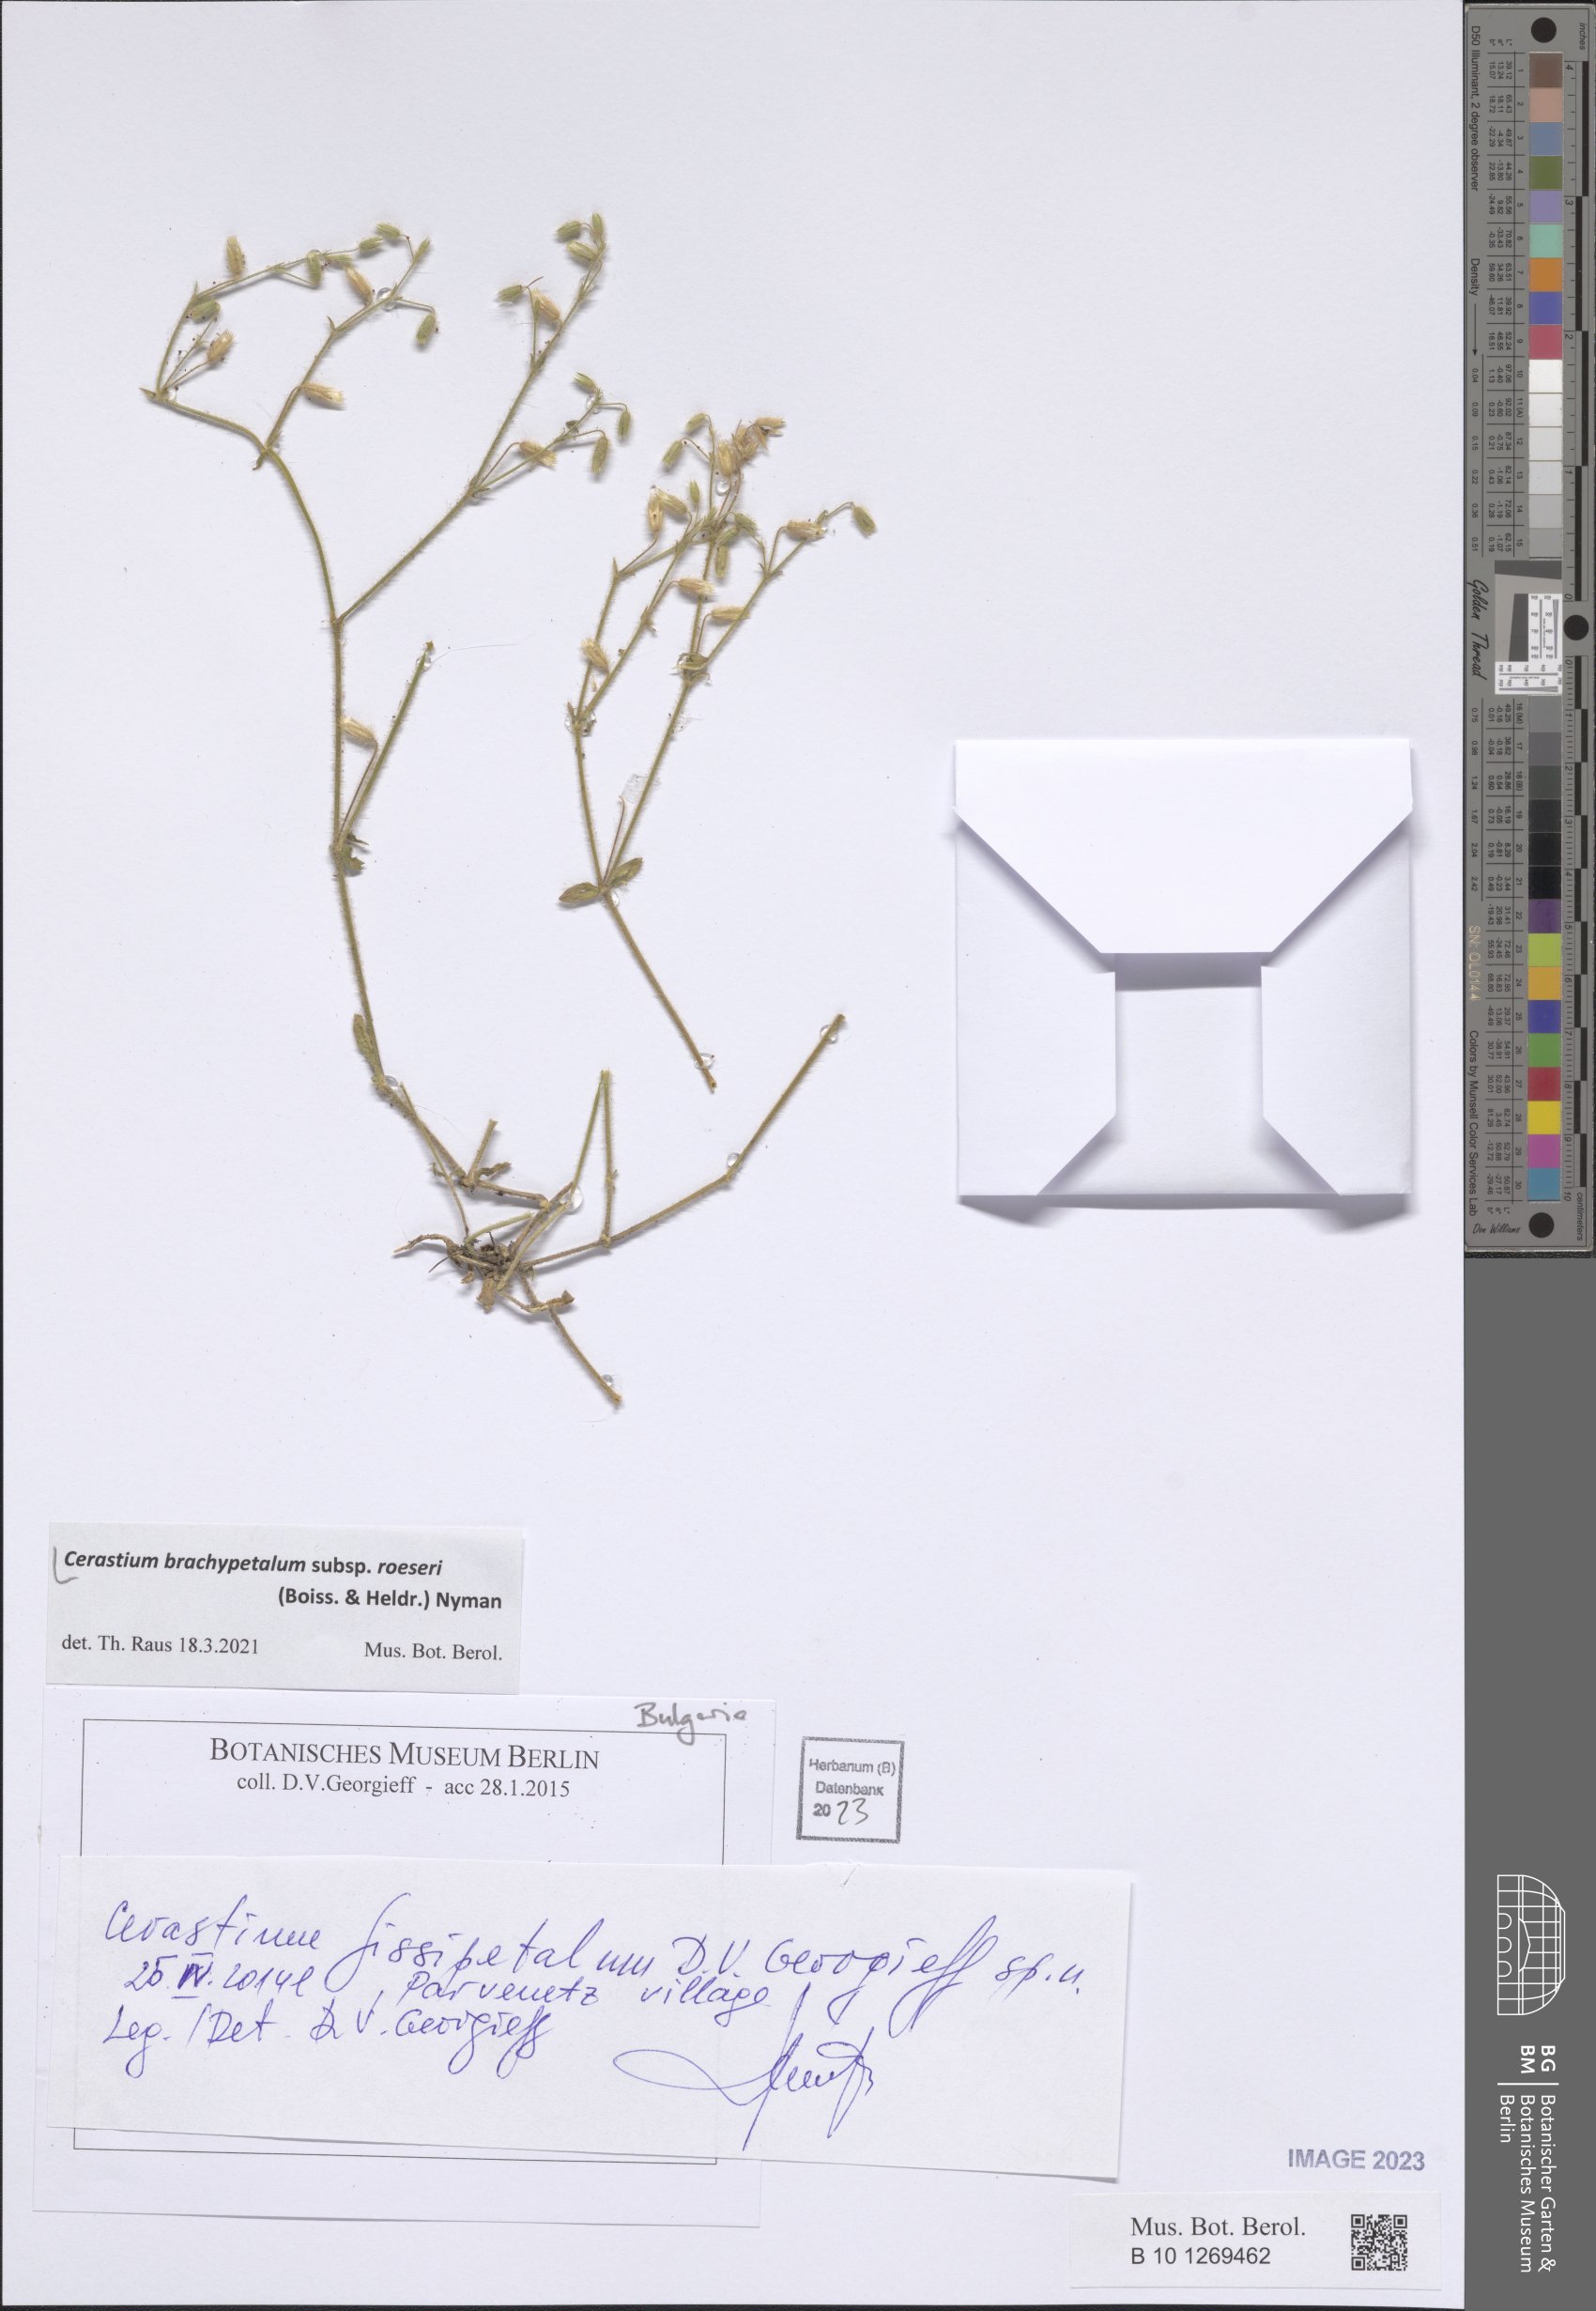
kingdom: Plantae
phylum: Tracheophyta
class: Magnoliopsida
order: Caryophyllales
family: Caryophyllaceae
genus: Cerastium
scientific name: Cerastium brachypetalum
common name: Grey mouse-ear
